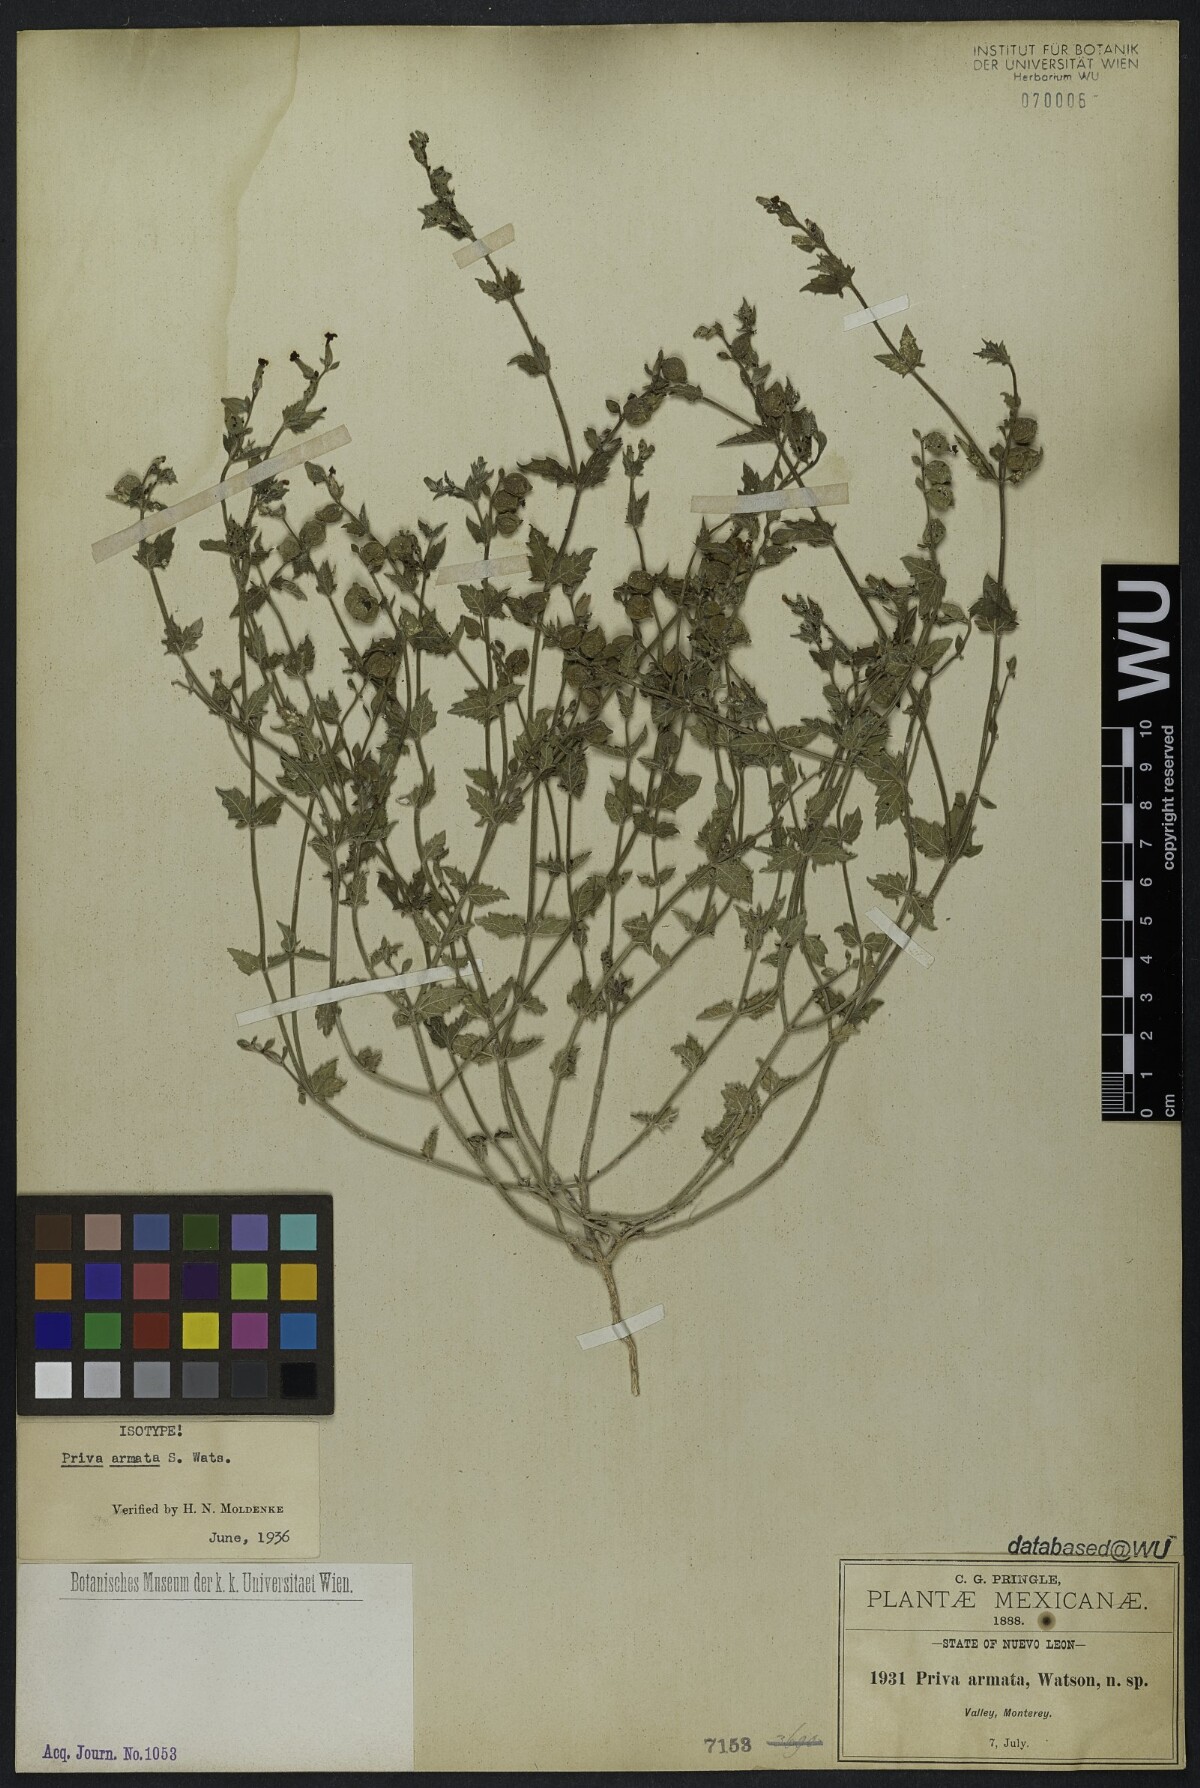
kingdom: Plantae
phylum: Tracheophyta
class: Magnoliopsida
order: Lamiales
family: Verbenaceae
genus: Priva
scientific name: Priva armata
